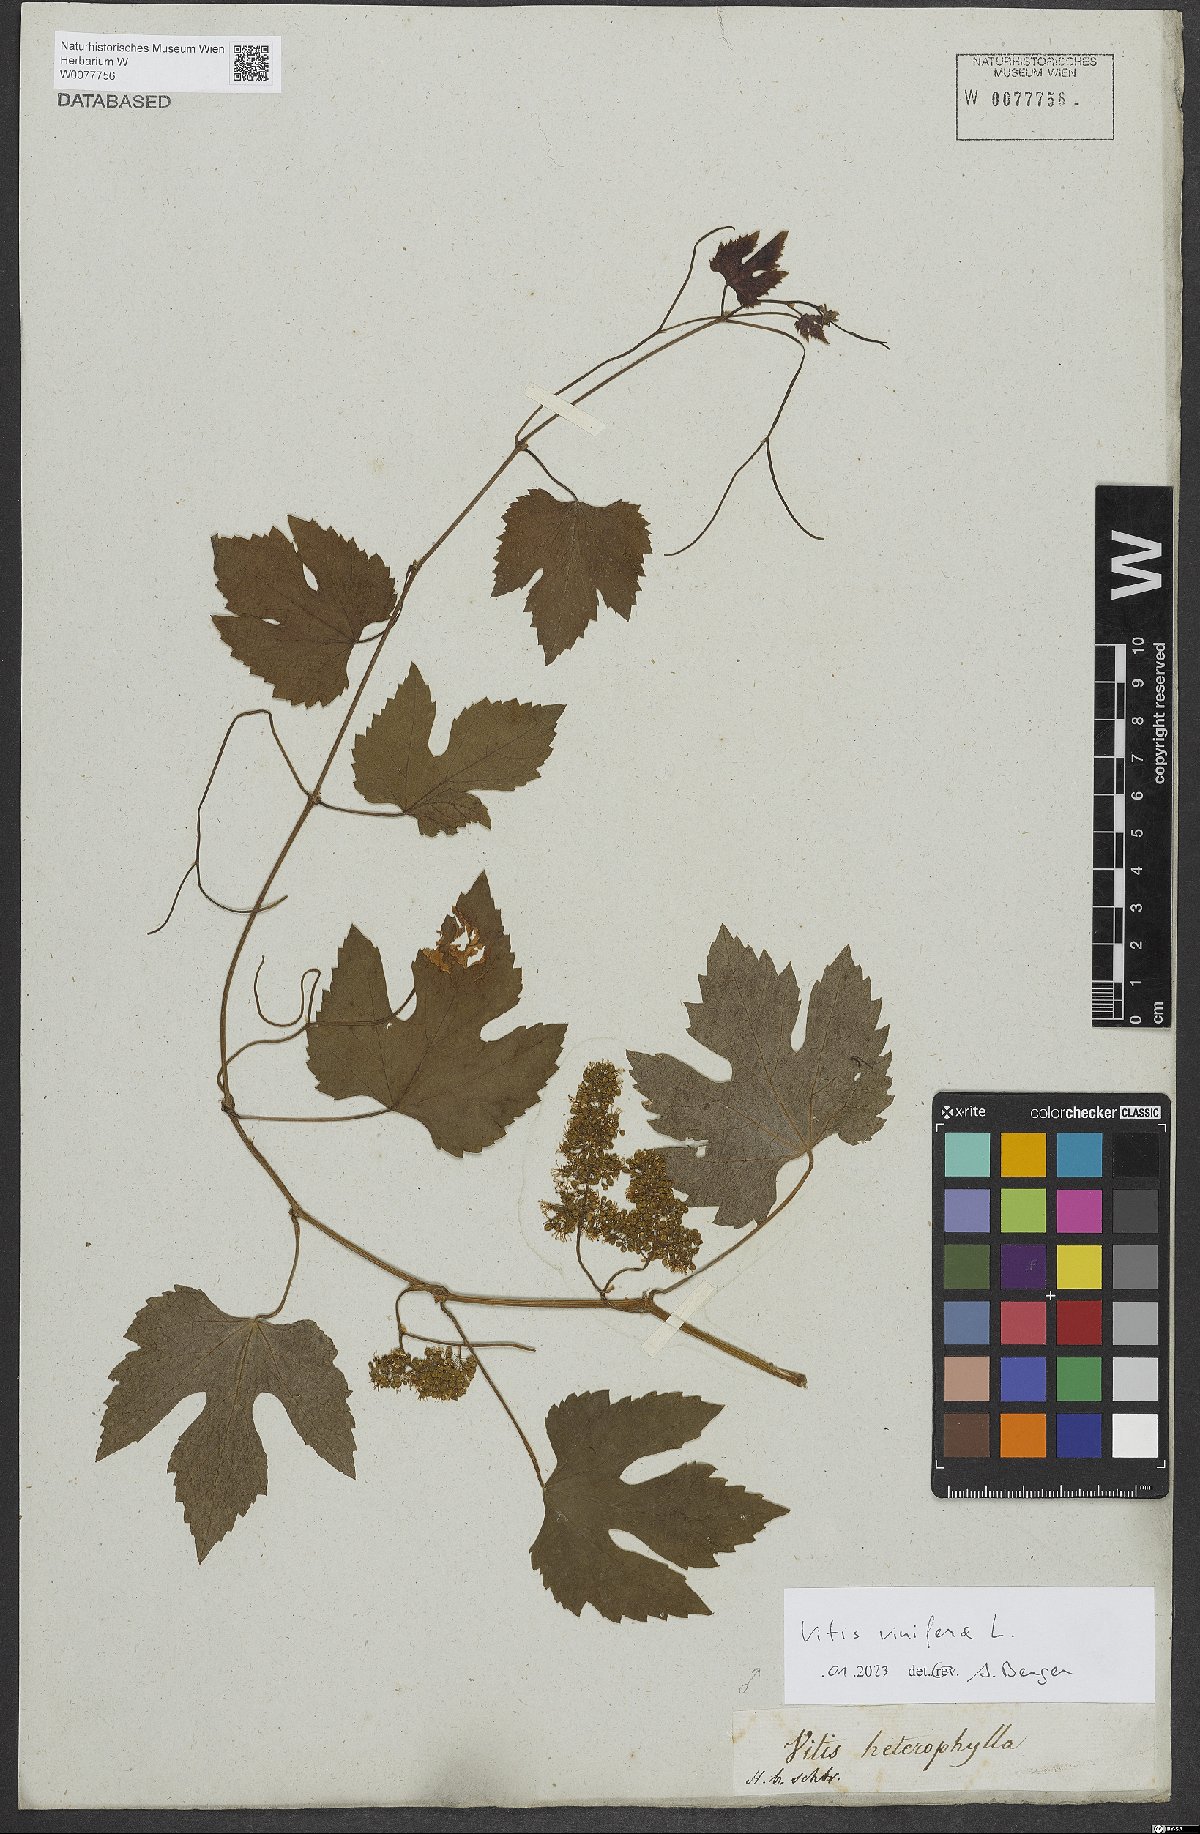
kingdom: Plantae
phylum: Tracheophyta
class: Magnoliopsida
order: Vitales
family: Vitaceae
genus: Vitis
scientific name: Vitis vinifera
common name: Grape-vine
